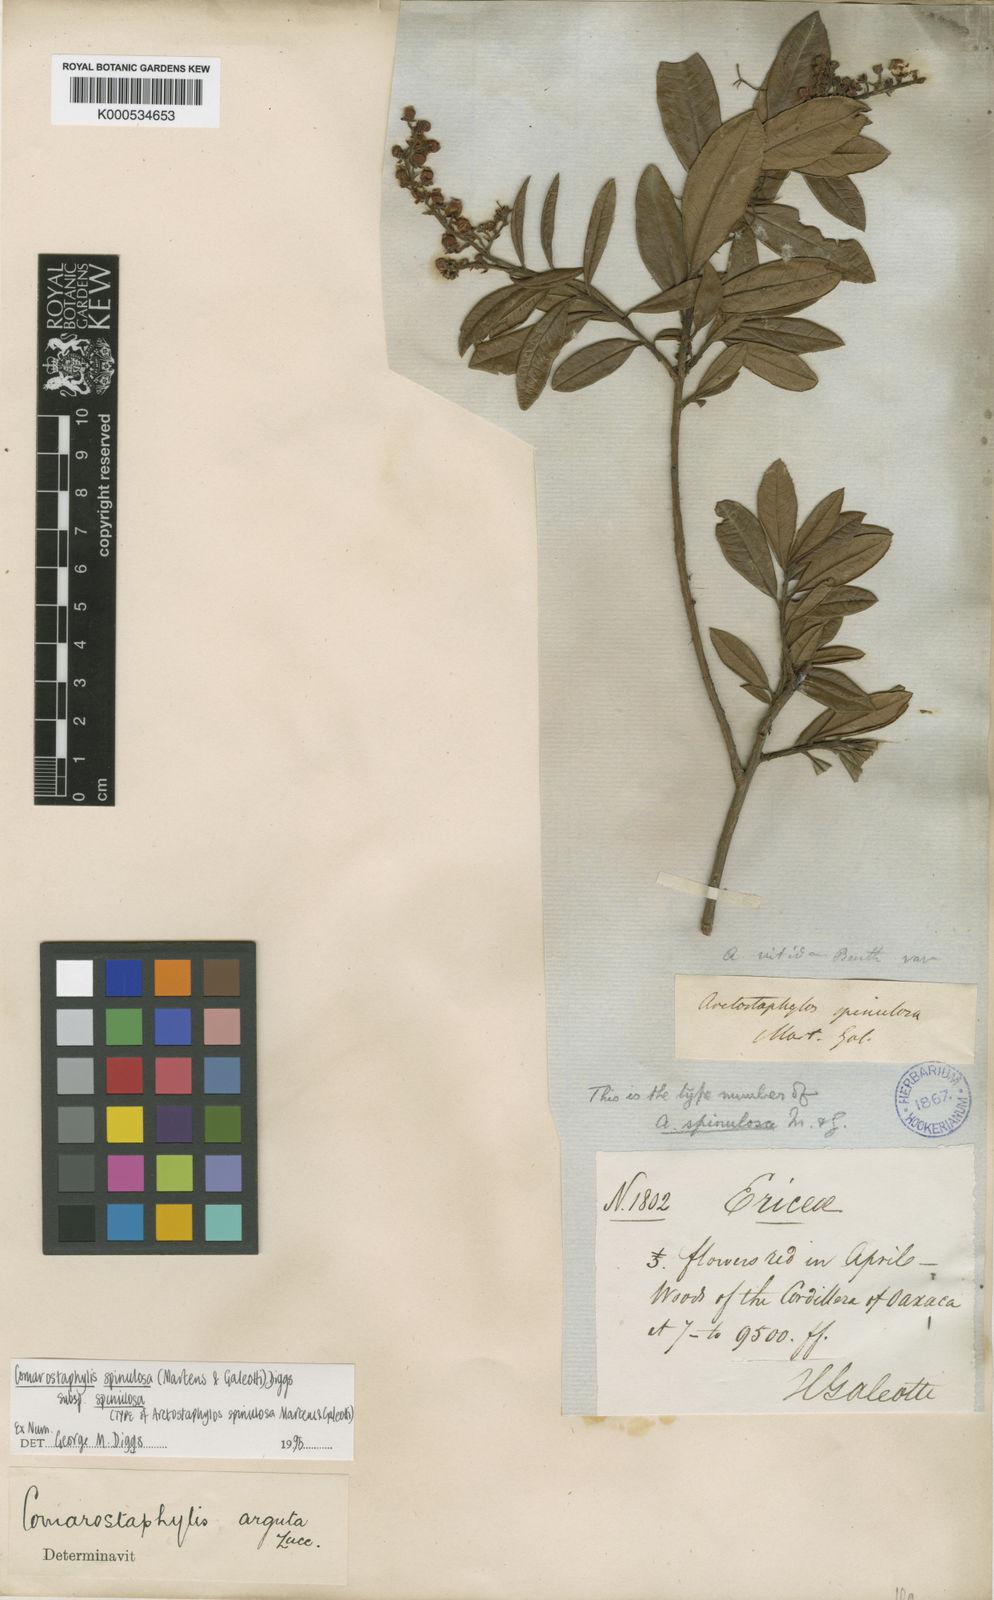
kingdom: Plantae
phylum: Tracheophyta
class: Magnoliopsida
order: Ericales
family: Ericaceae
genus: Comarostaphylis
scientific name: Comarostaphylis spinulosa
